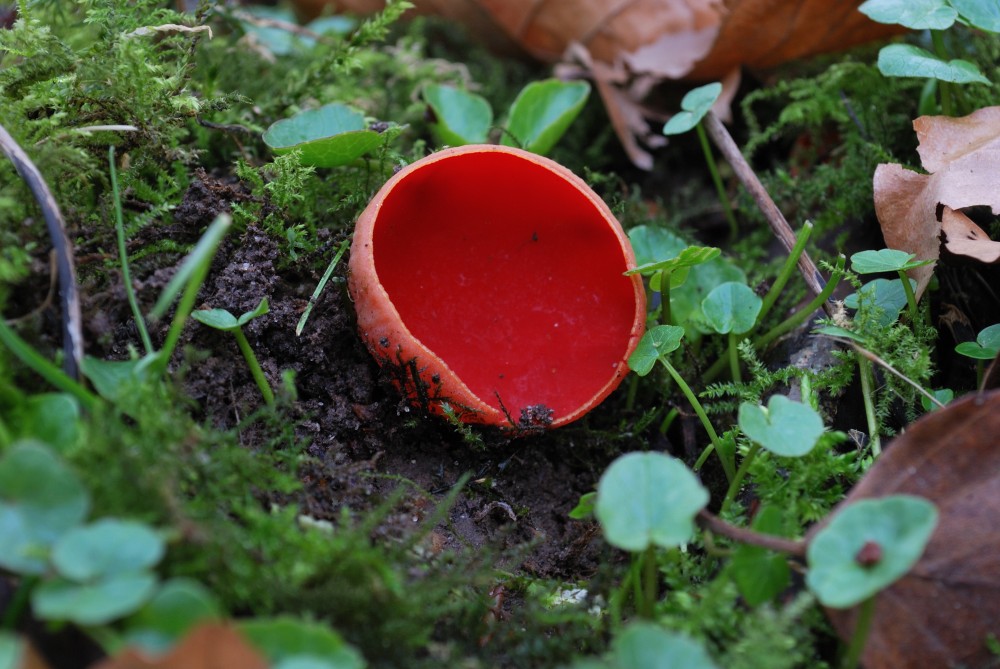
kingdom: Fungi
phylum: Ascomycota
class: Pezizomycetes
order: Pezizales
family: Sarcoscyphaceae
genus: Sarcoscypha
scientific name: Sarcoscypha
